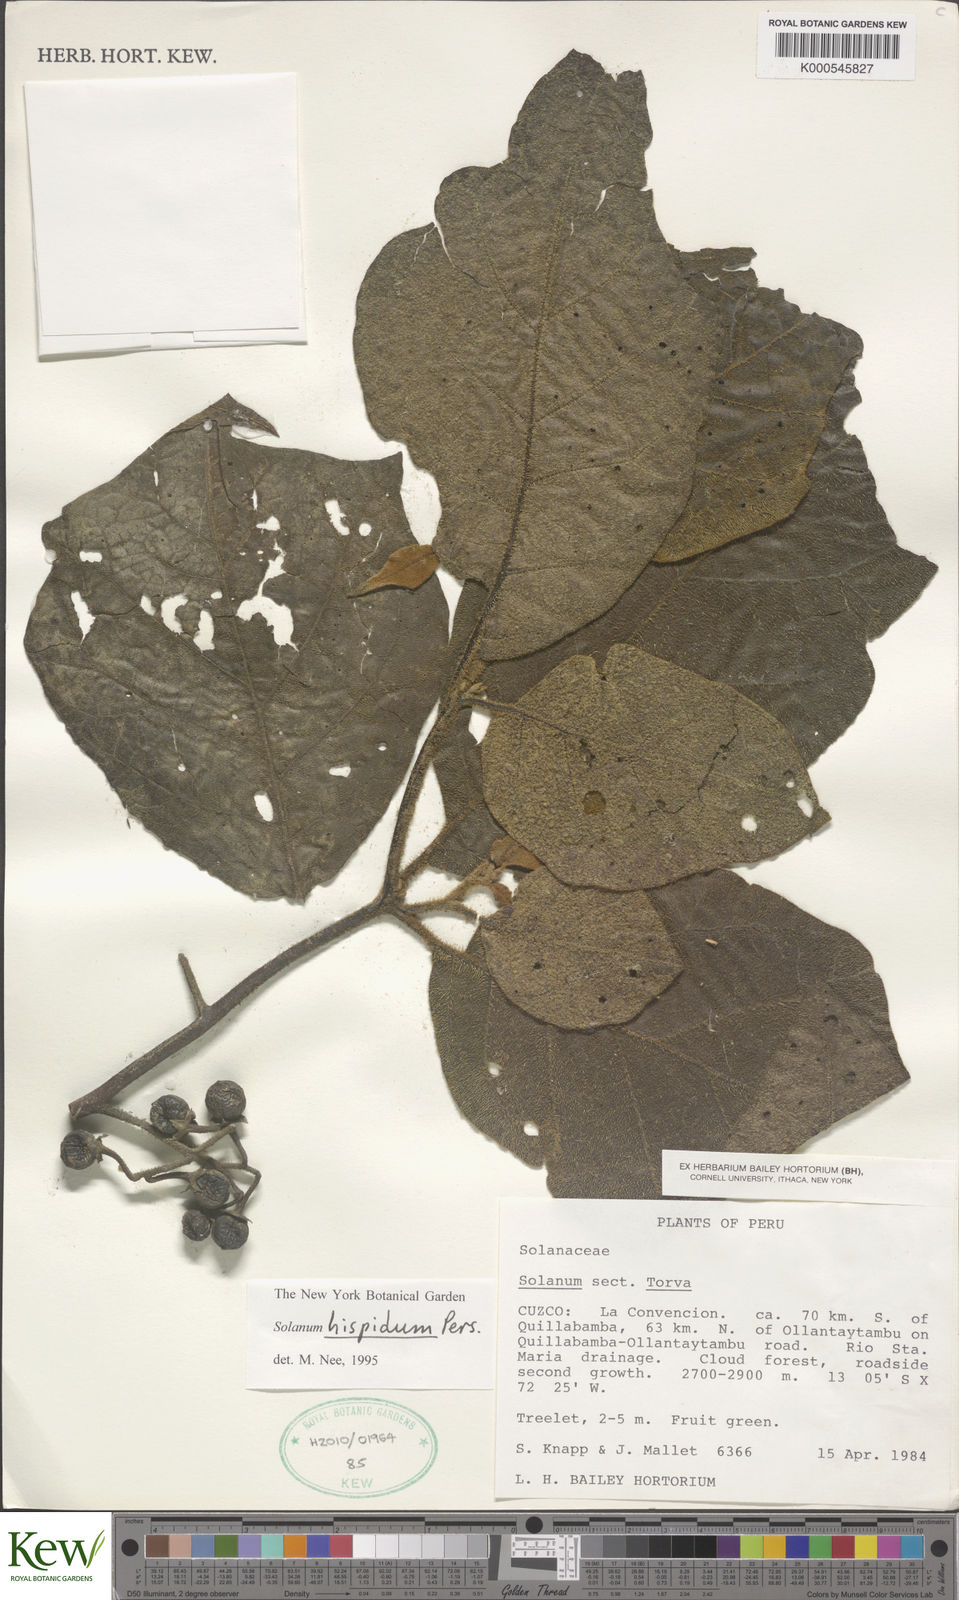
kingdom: Plantae
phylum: Tracheophyta
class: Magnoliopsida
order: Solanales
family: Solanaceae
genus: Solanum
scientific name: Solanum asperolanatum
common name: Devil's-fig
